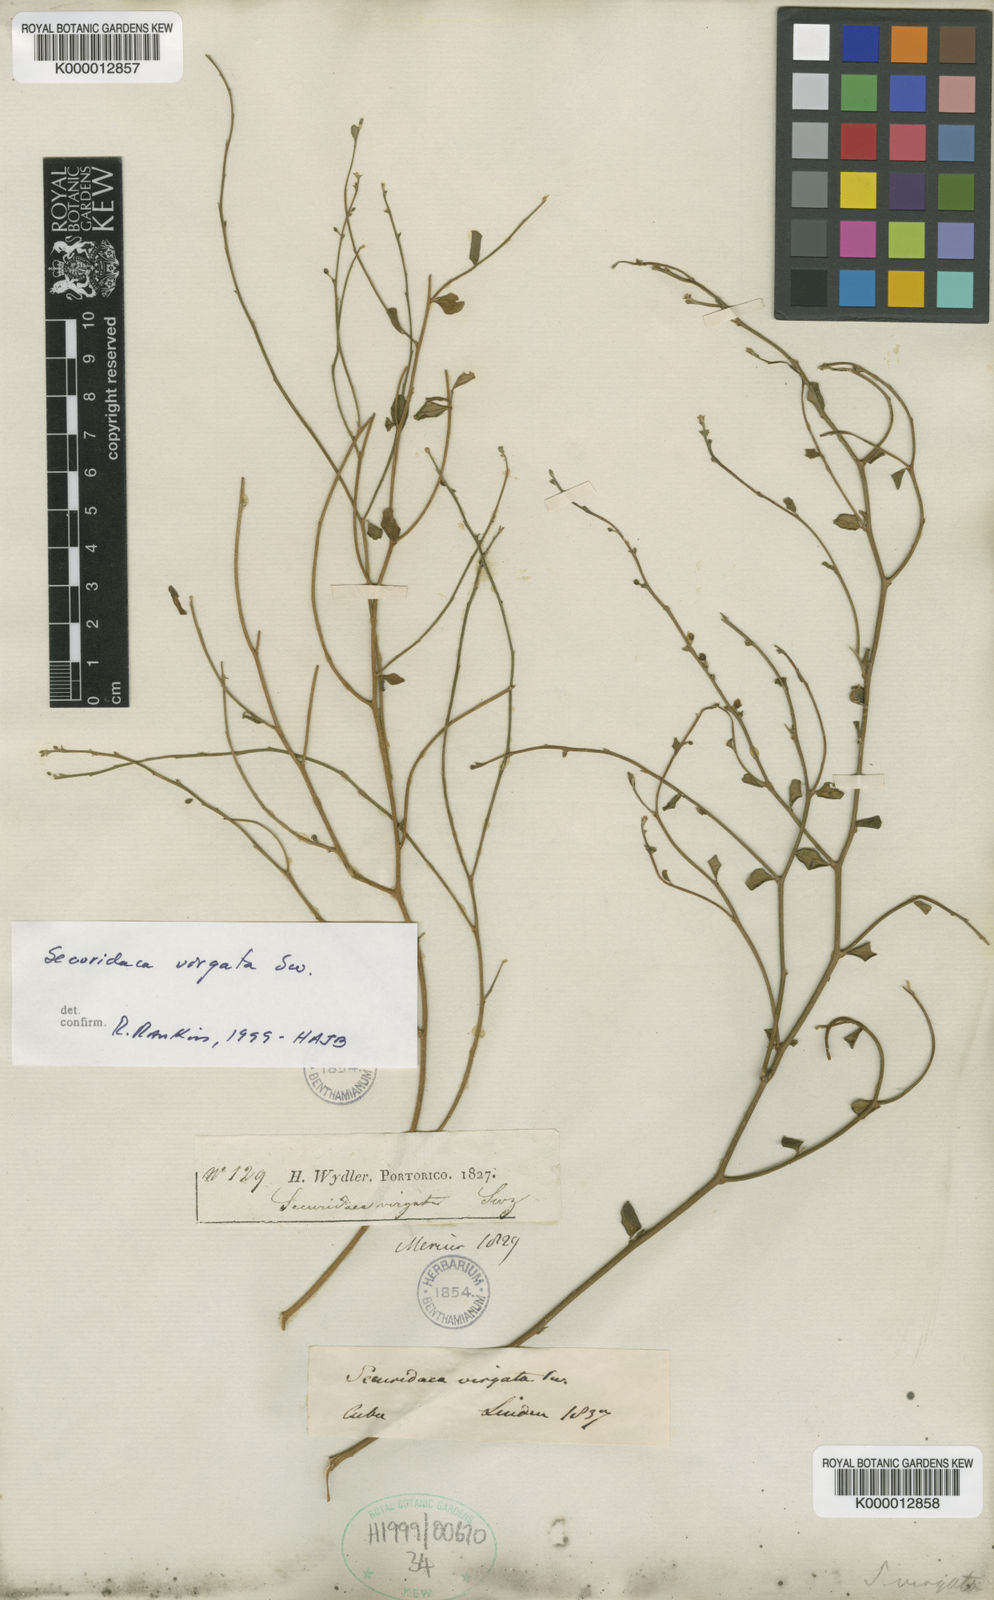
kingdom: Plantae
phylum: Tracheophyta
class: Magnoliopsida
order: Fabales
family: Polygalaceae
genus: Securidaca
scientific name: Securidaca virgata
